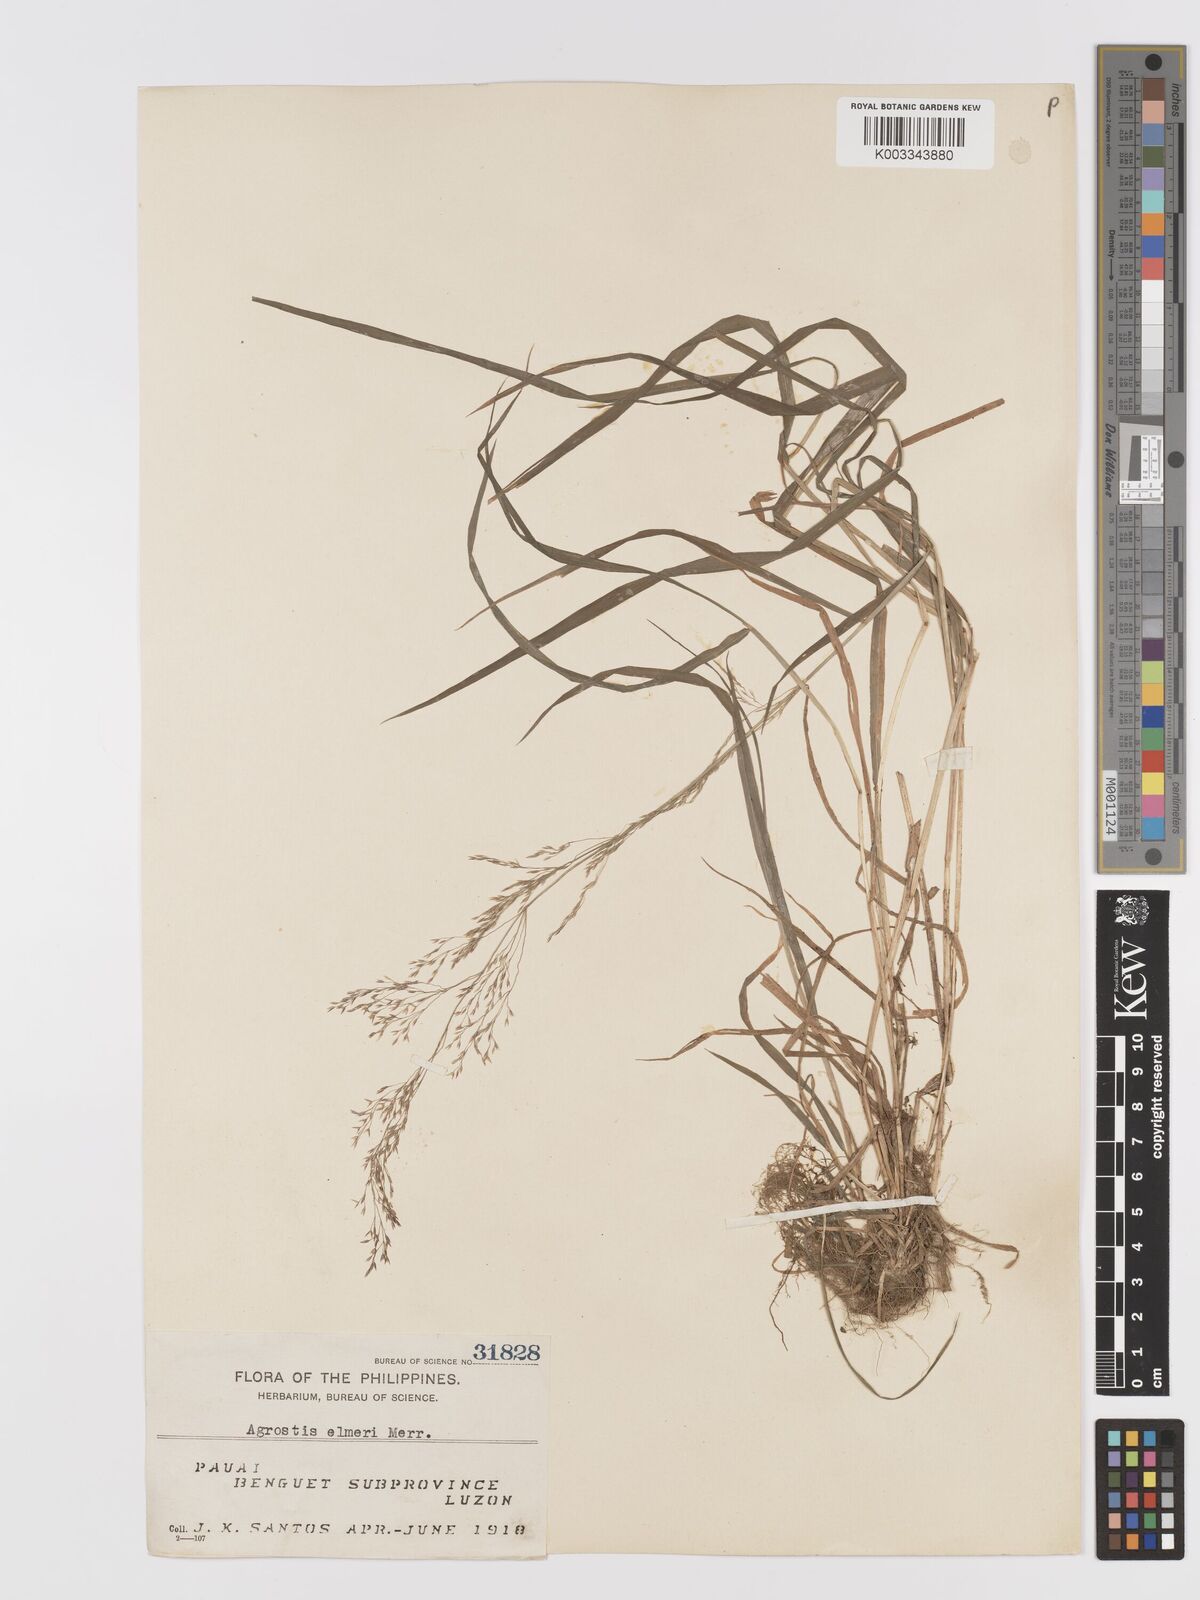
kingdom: Plantae
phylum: Tracheophyta
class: Liliopsida
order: Poales
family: Poaceae
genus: Agrostis
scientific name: Agrostis infirma
